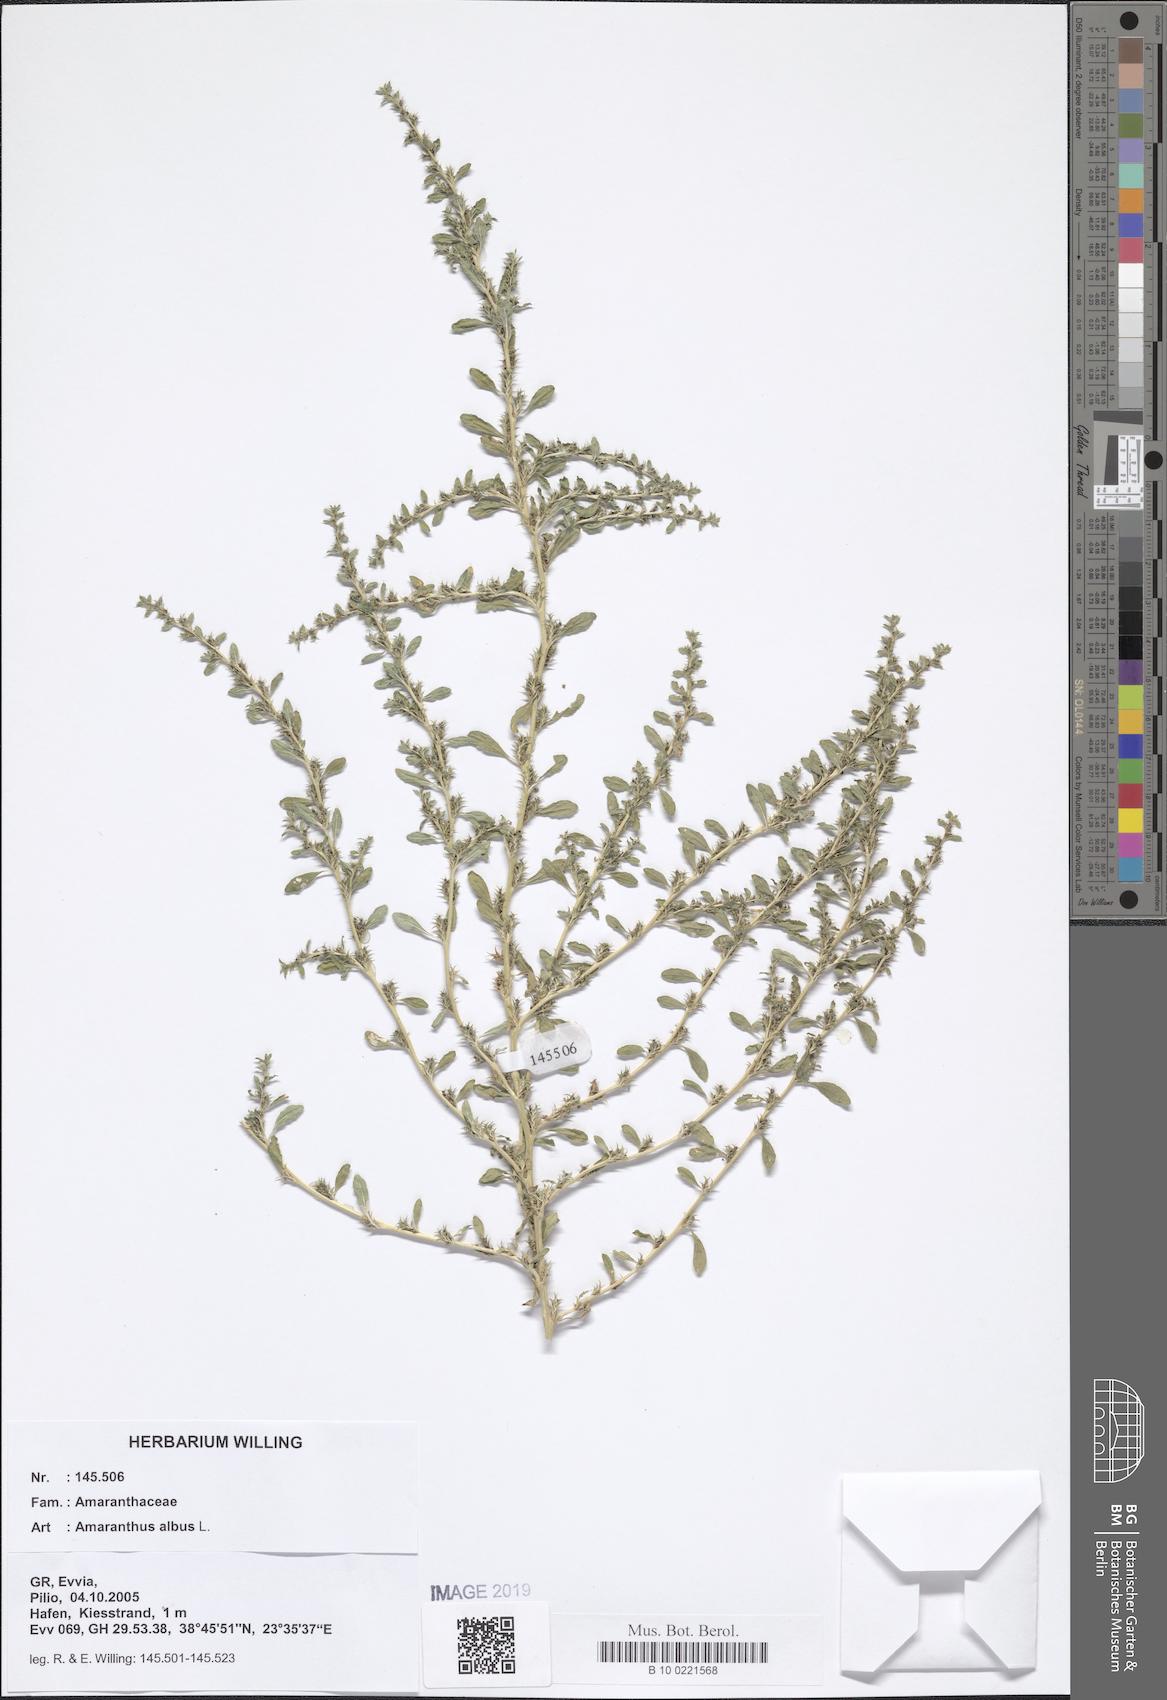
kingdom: Plantae
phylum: Tracheophyta
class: Magnoliopsida
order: Caryophyllales
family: Amaranthaceae
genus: Amaranthus
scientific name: Amaranthus albus
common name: White pigweed
